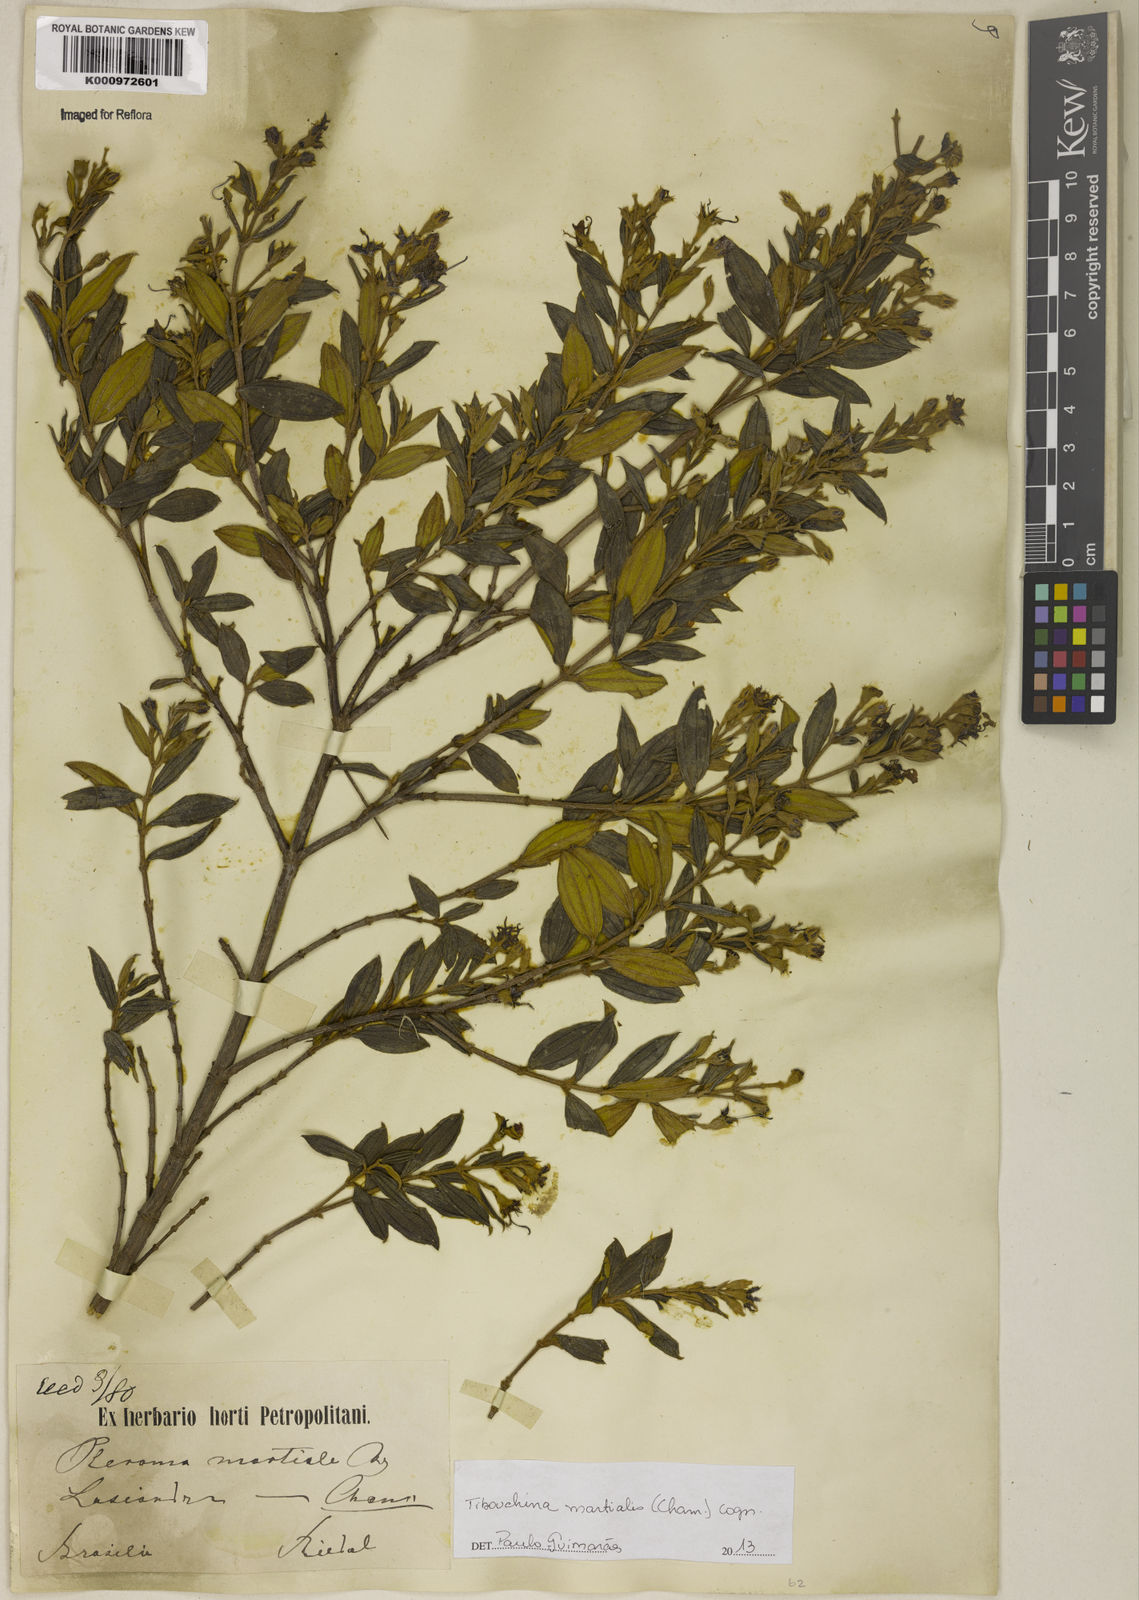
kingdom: Plantae
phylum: Tracheophyta
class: Magnoliopsida
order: Myrtales
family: Melastomataceae
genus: Pleroma
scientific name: Pleroma martiale
